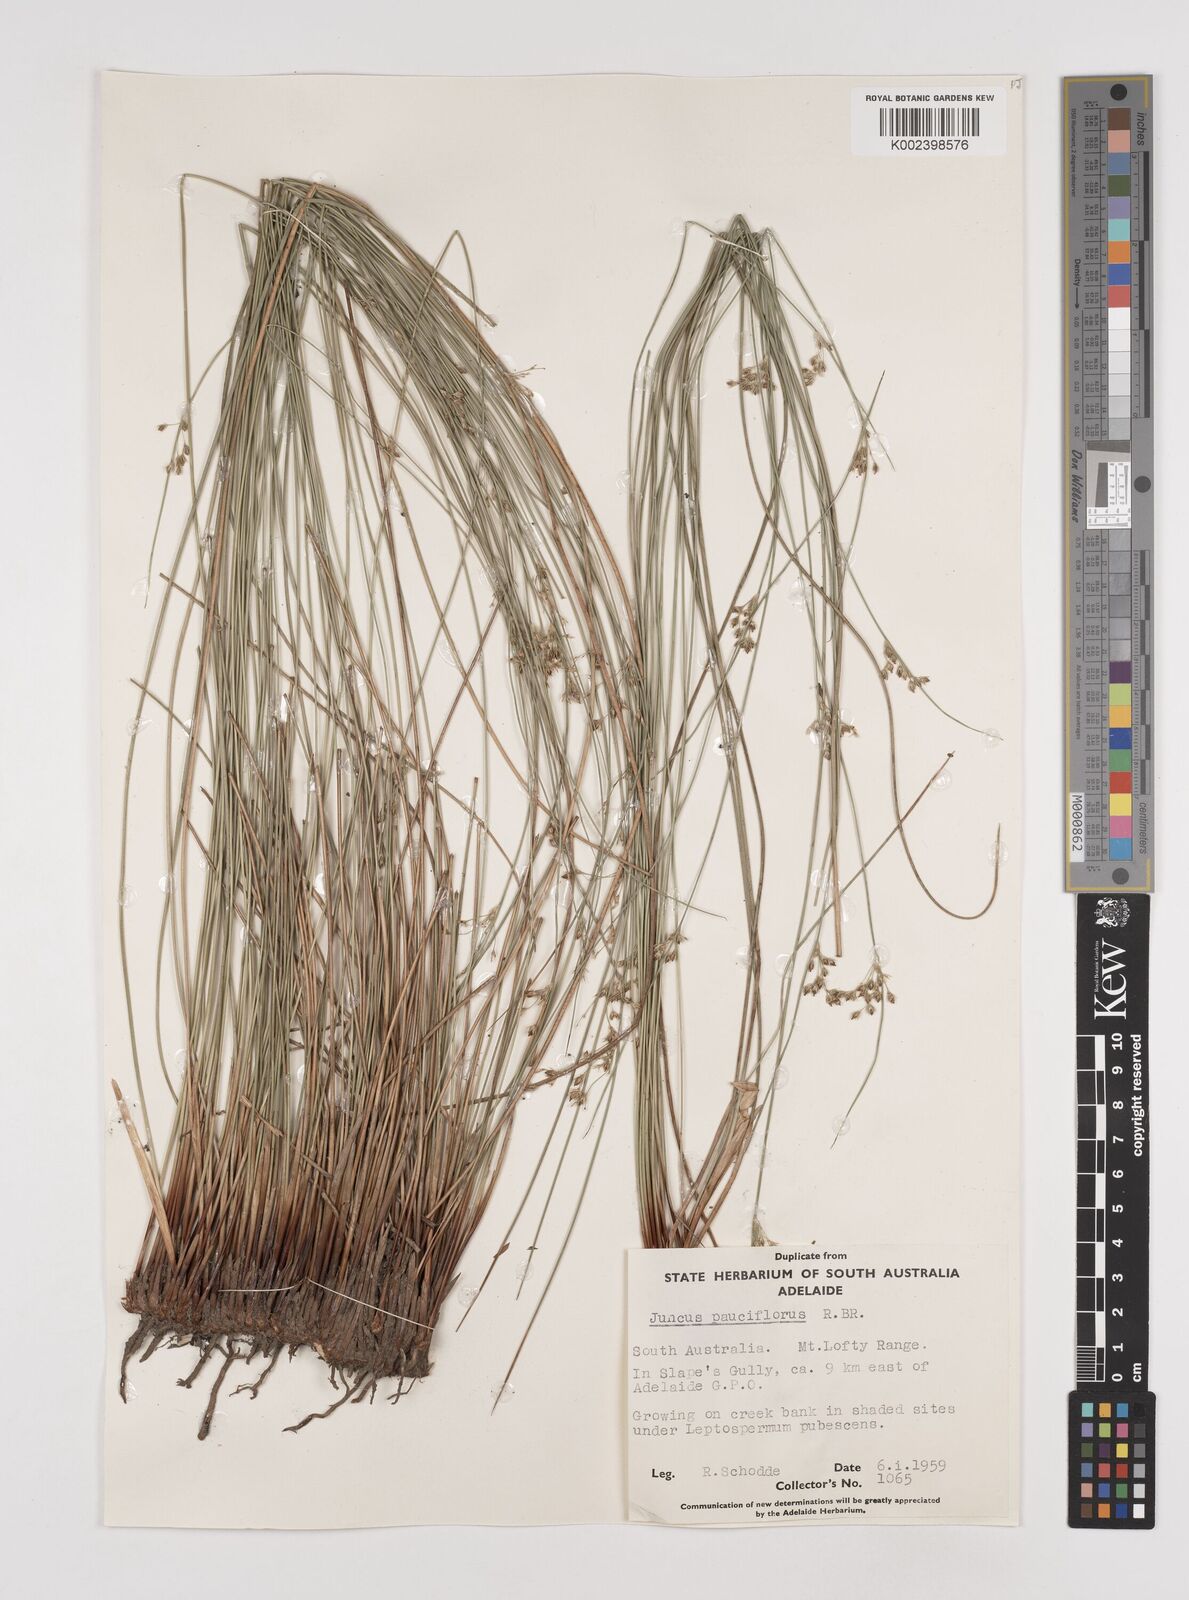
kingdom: Plantae
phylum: Tracheophyta
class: Liliopsida
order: Poales
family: Juncaceae
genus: Juncus
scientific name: Juncus pauciflorus
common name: Loose-flowered rush
